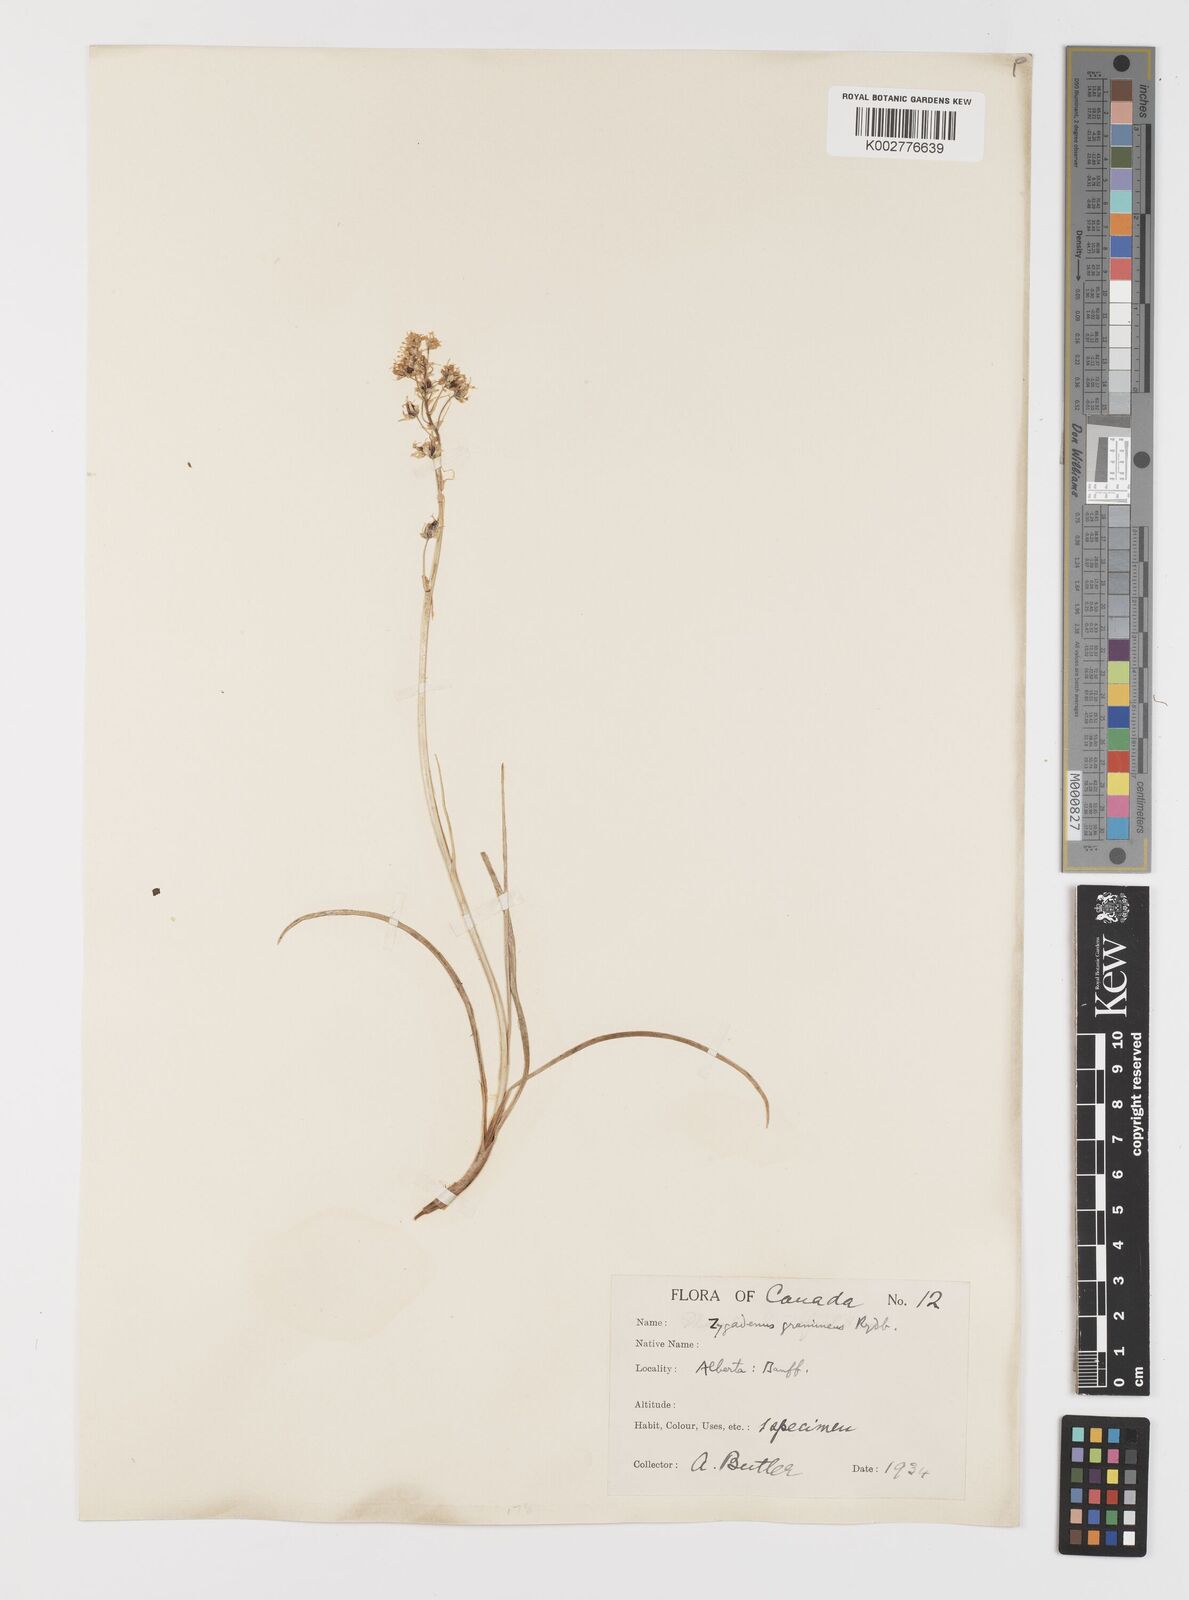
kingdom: Plantae
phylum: Tracheophyta
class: Liliopsida
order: Liliales
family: Melanthiaceae
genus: Toxicoscordion
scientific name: Toxicoscordion venenosum
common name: Meadow death camas
